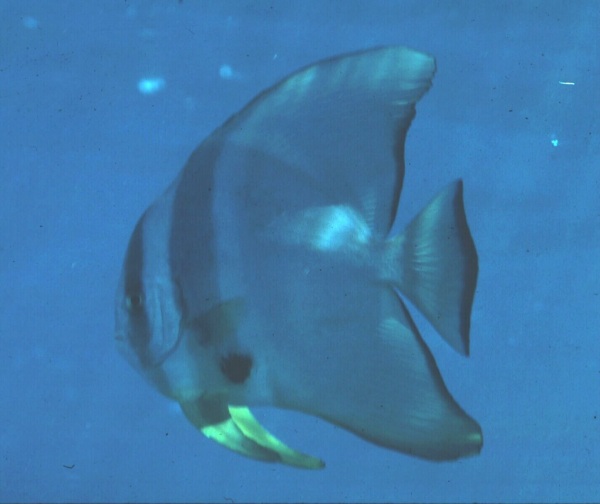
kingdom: Animalia
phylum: Chordata
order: Perciformes
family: Ephippidae
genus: Platax
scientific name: Platax teira
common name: Longfin baitfish
